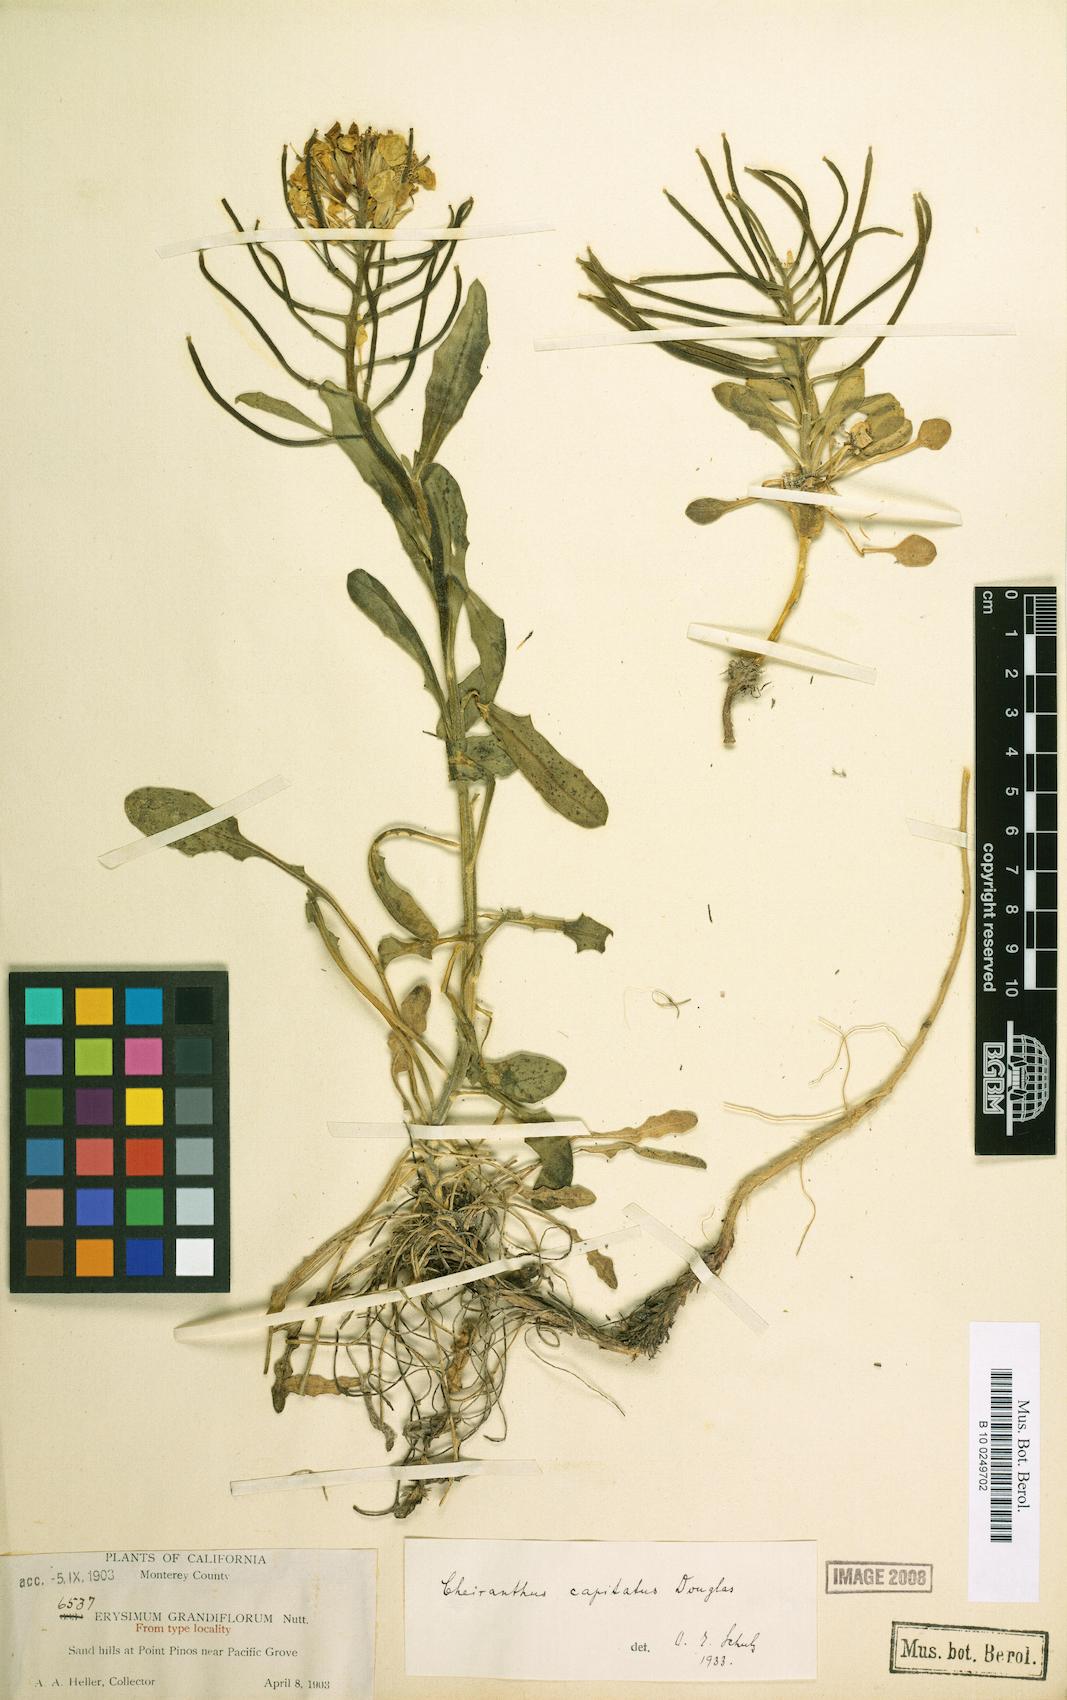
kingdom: Plantae
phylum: Tracheophyta
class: Magnoliopsida
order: Brassicales
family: Brassicaceae
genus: Erysimum
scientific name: Erysimum menziesii
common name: Menzies's wallflower
